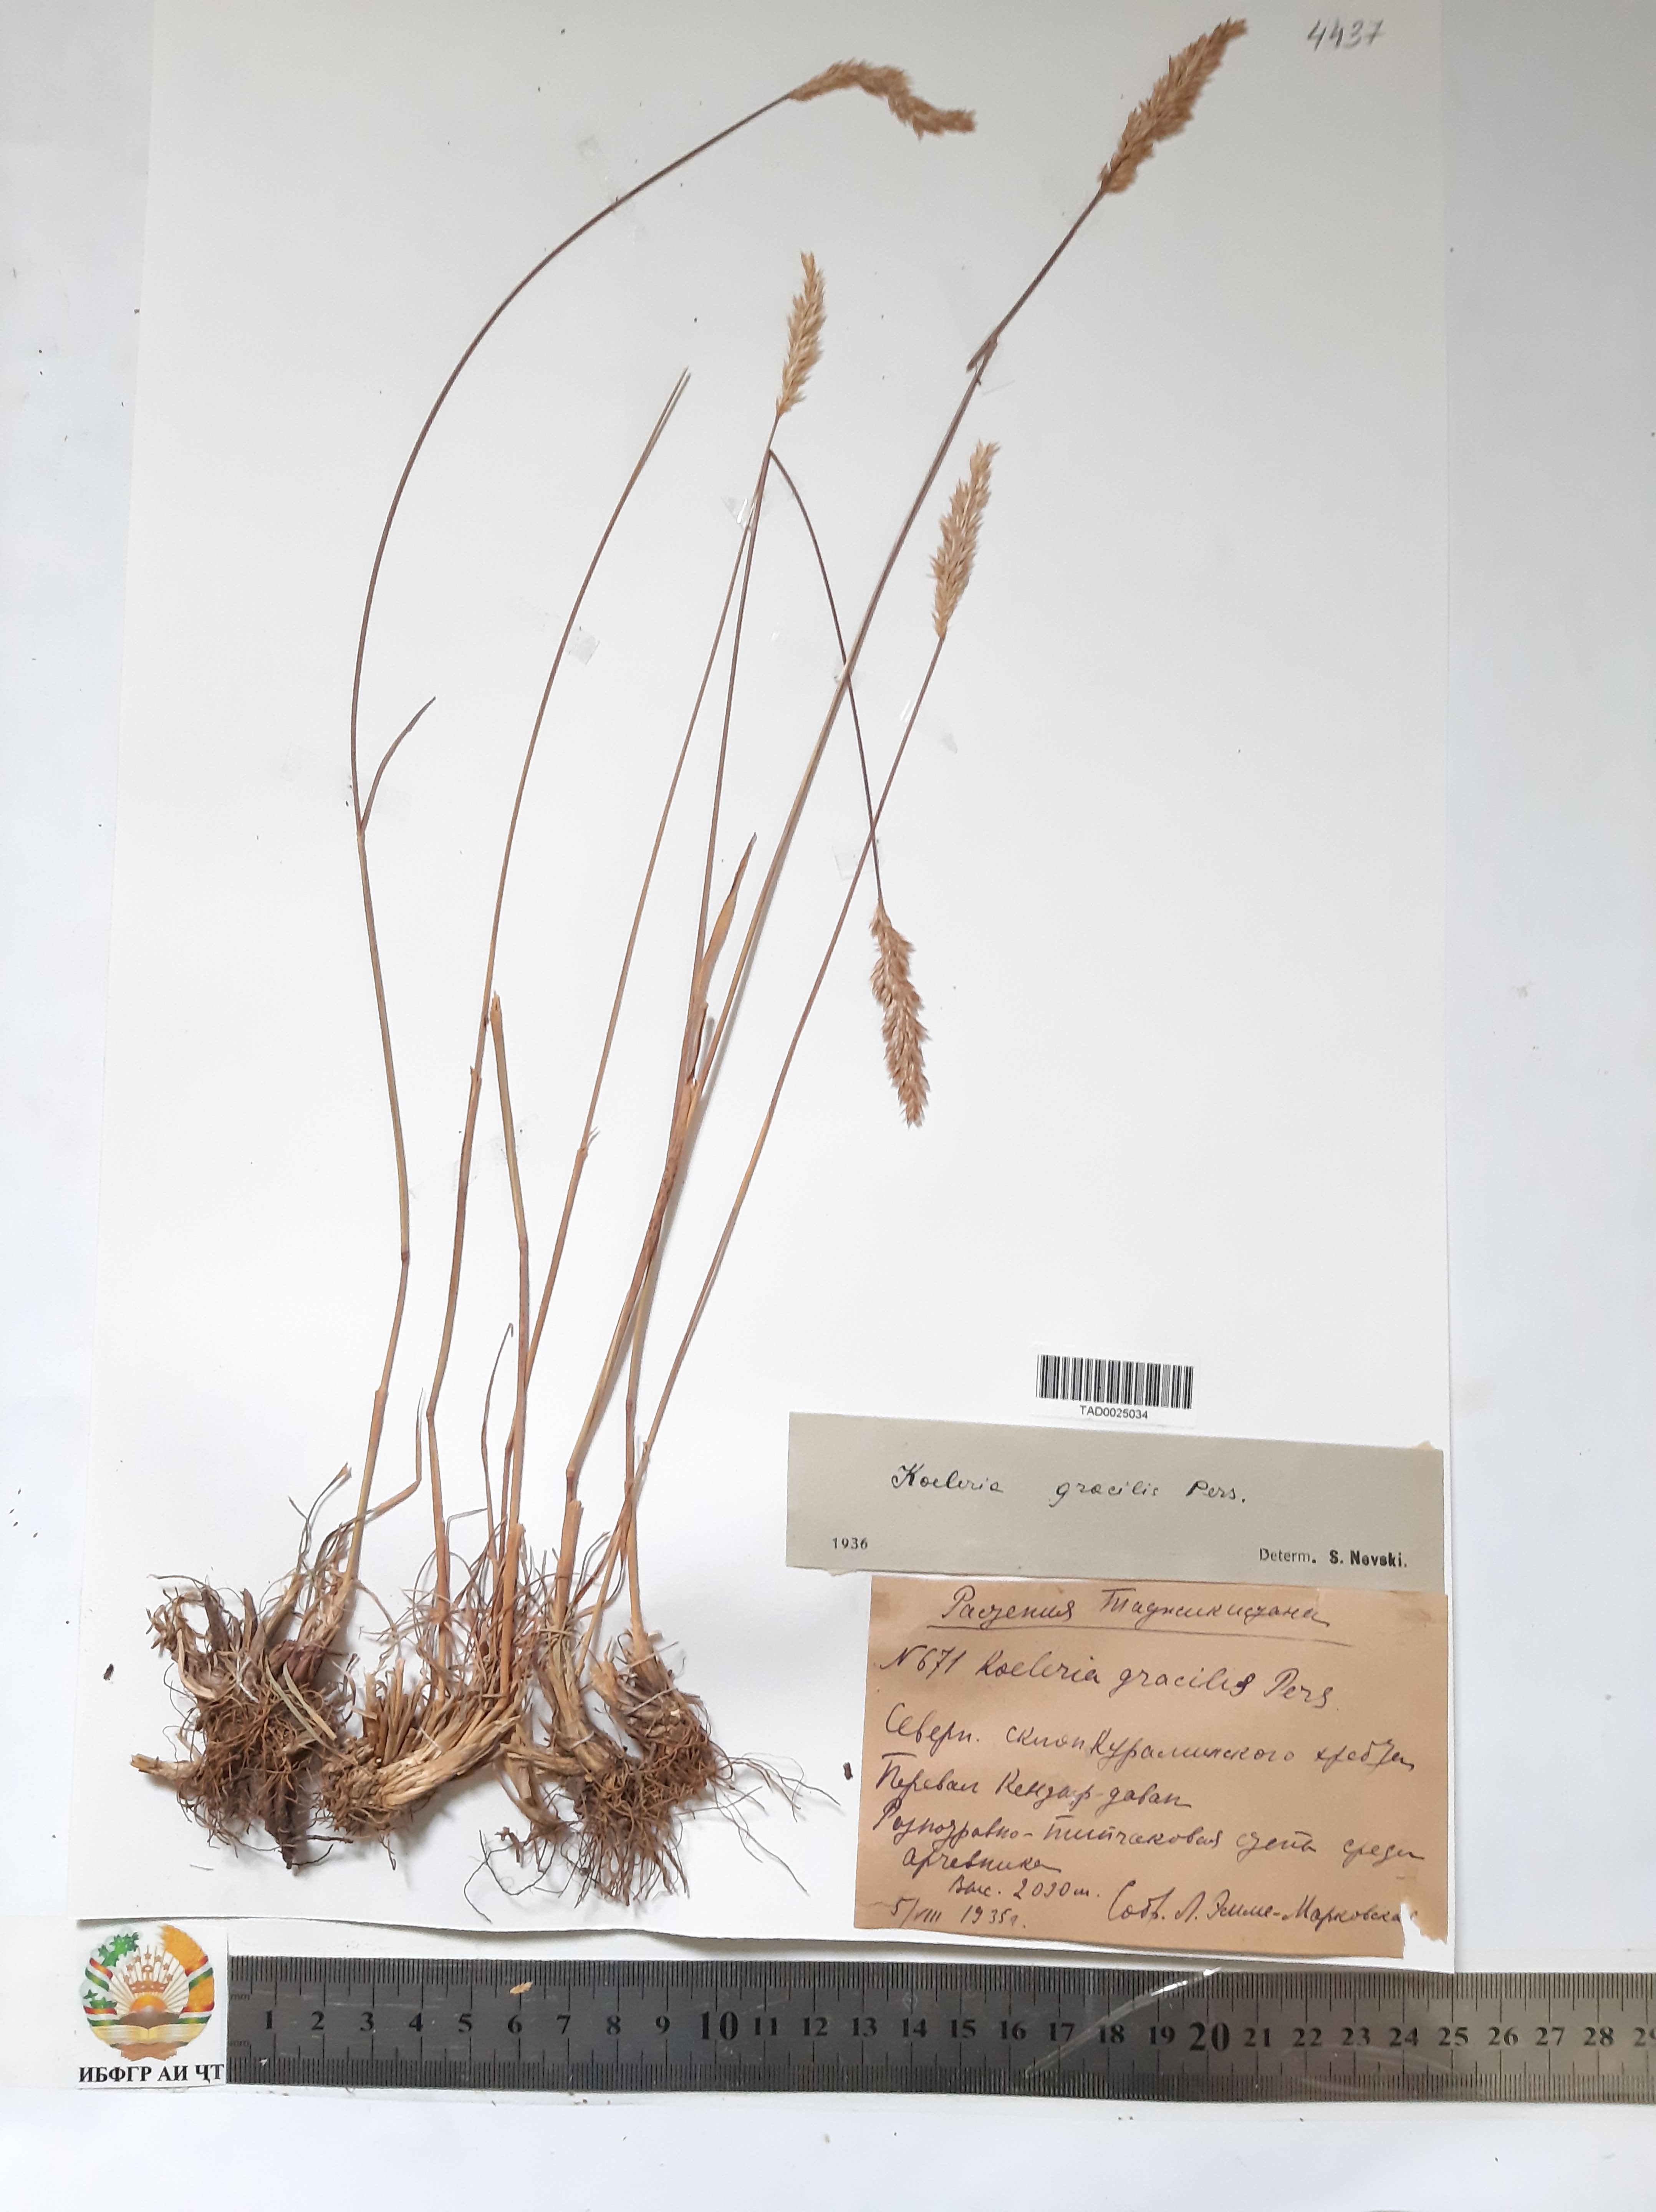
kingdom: Plantae
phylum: Tracheophyta
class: Liliopsida
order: Poales
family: Poaceae
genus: Koeleria
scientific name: Koeleria macrantha
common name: Crested hair-grass
